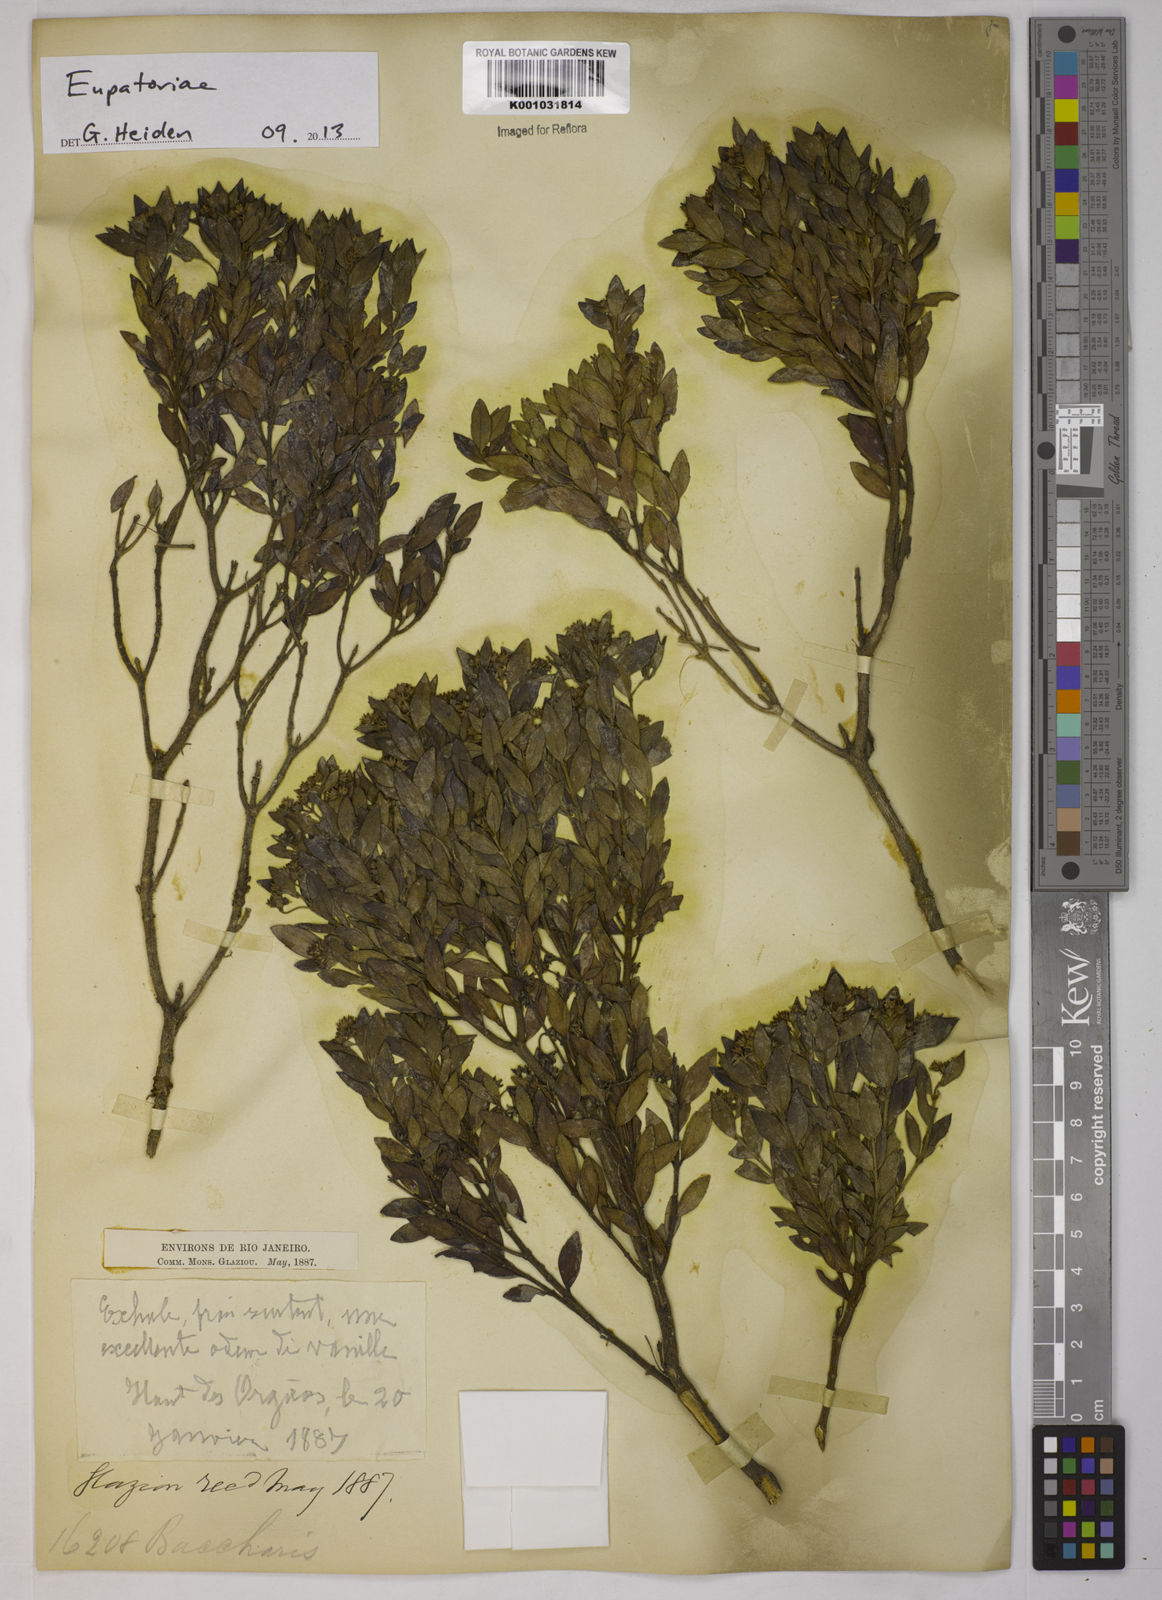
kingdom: Plantae
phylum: Tracheophyta
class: Magnoliopsida
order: Asterales
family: Asteraceae
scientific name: Asteraceae
